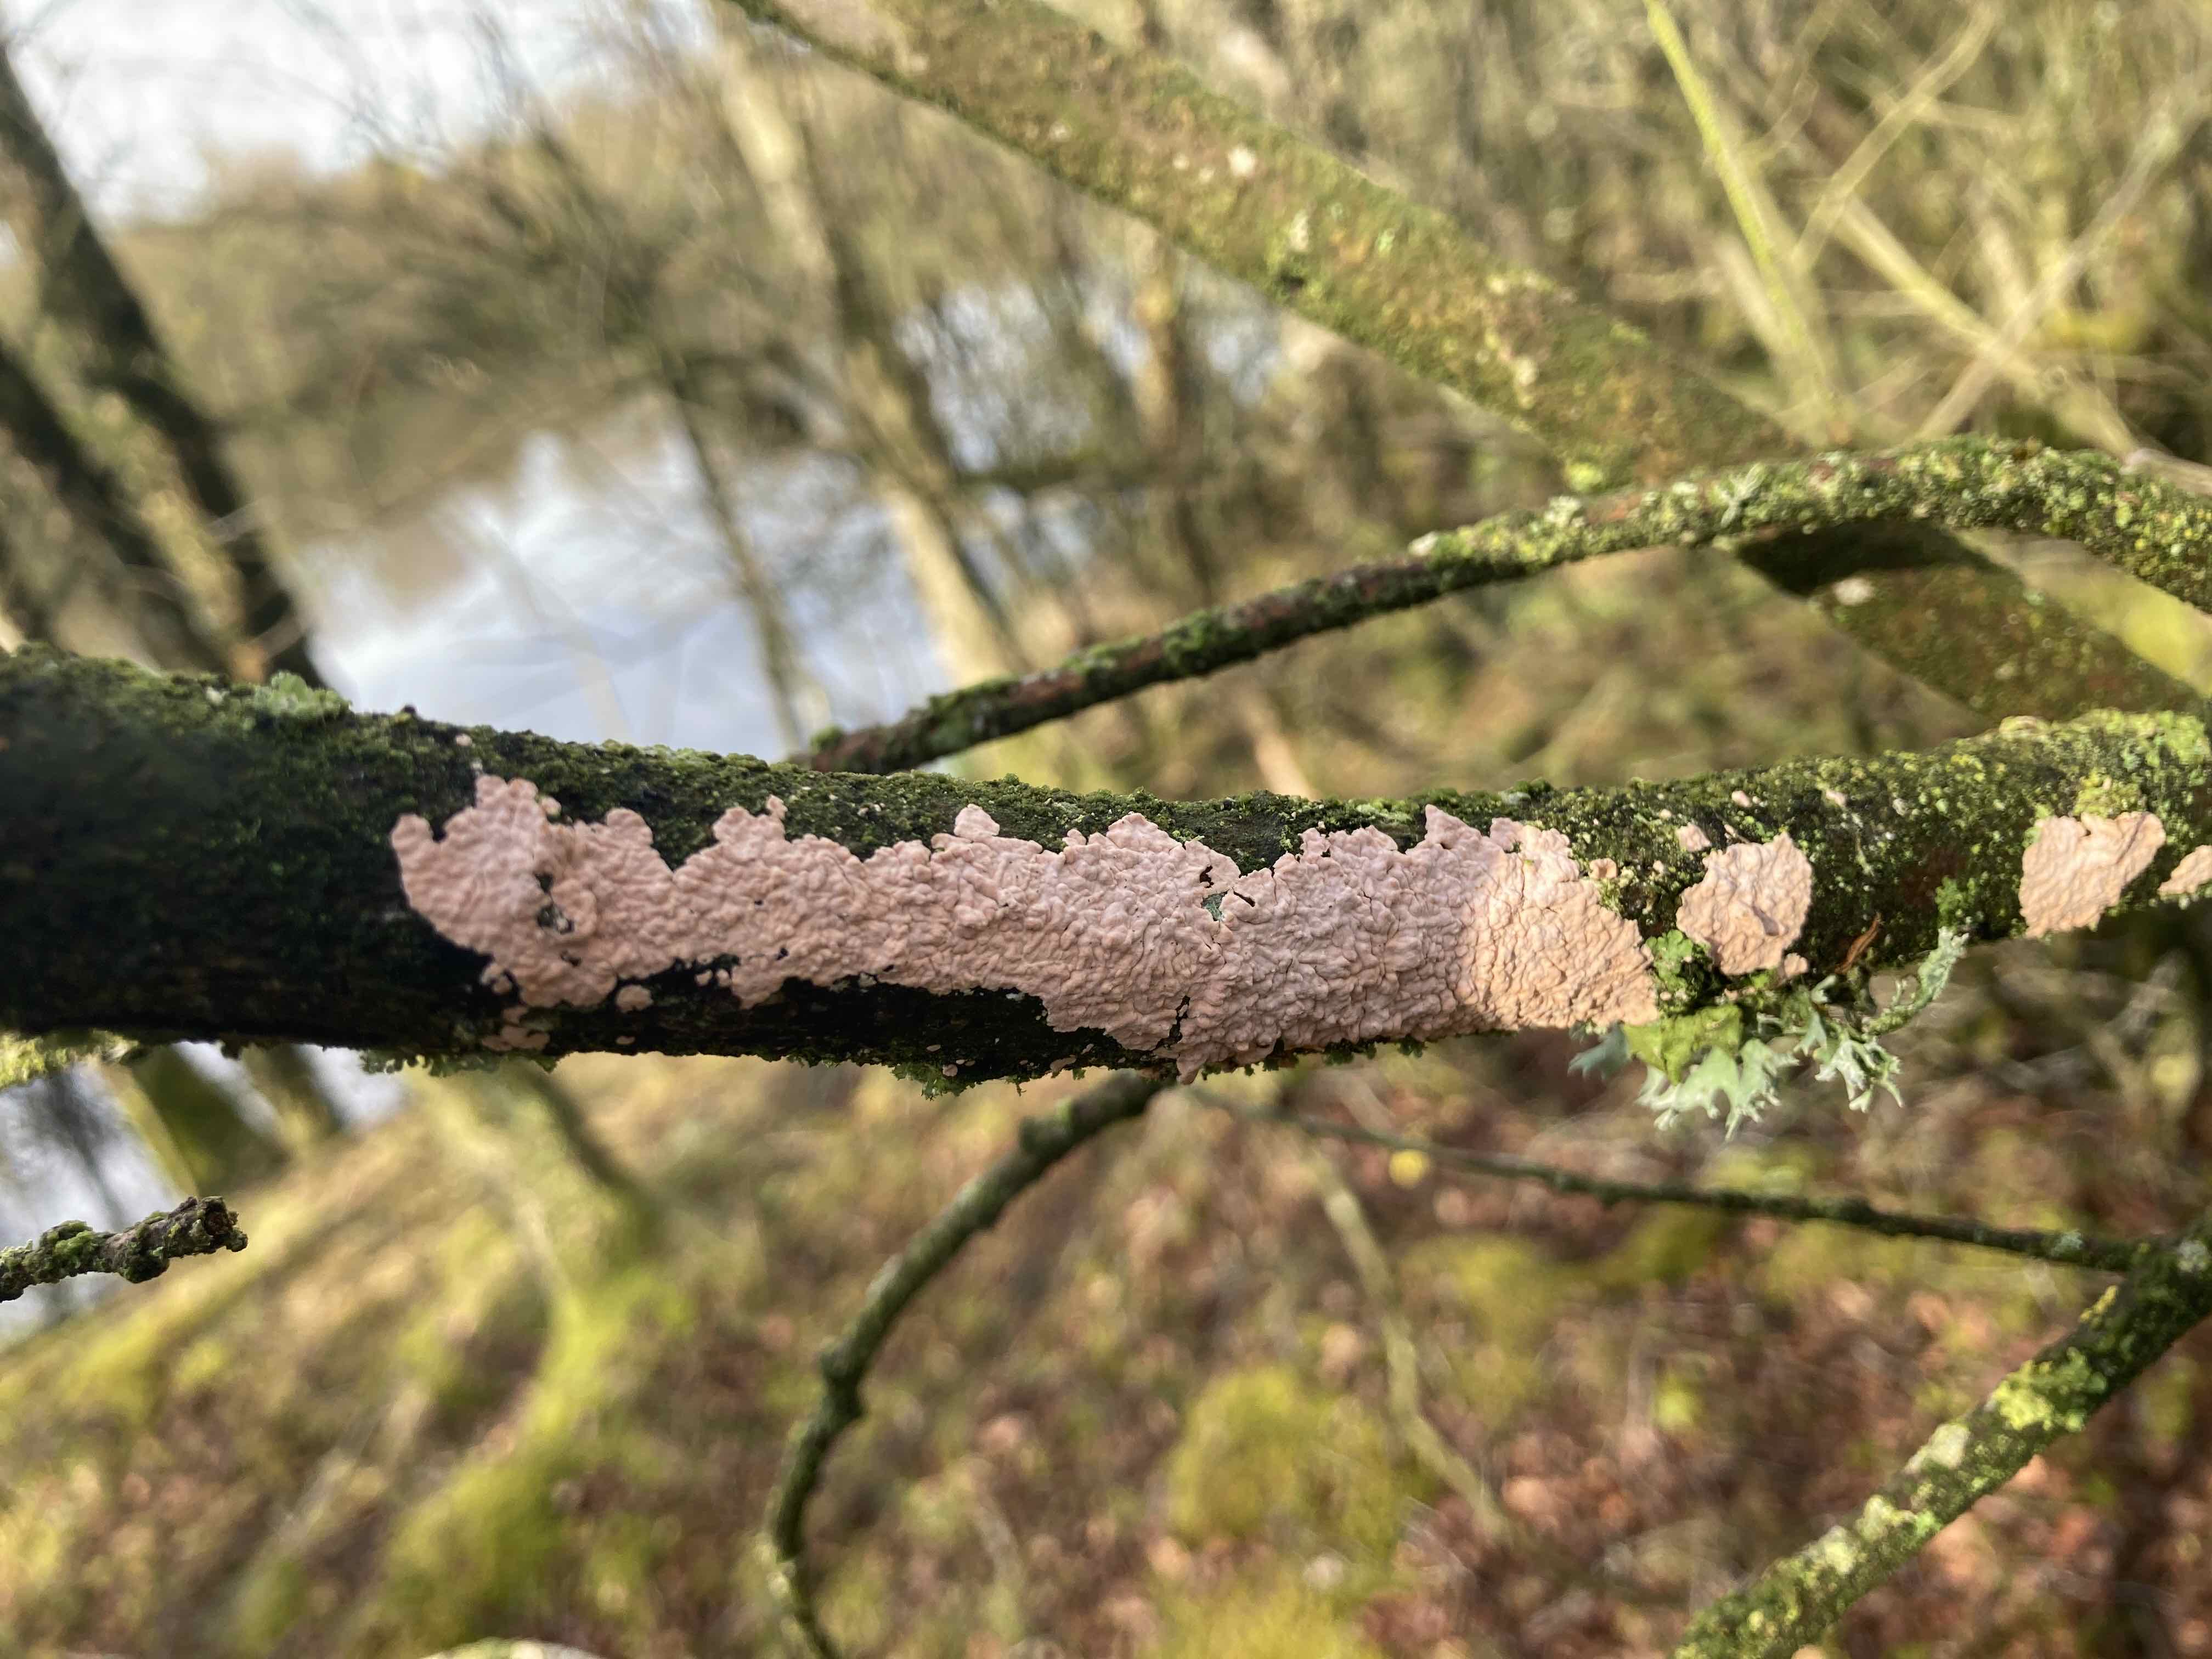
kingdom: Fungi
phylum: Basidiomycota
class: Agaricomycetes
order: Corticiales
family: Corticiaceae
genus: Corticium
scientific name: Corticium roseum
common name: rosa barkskind
